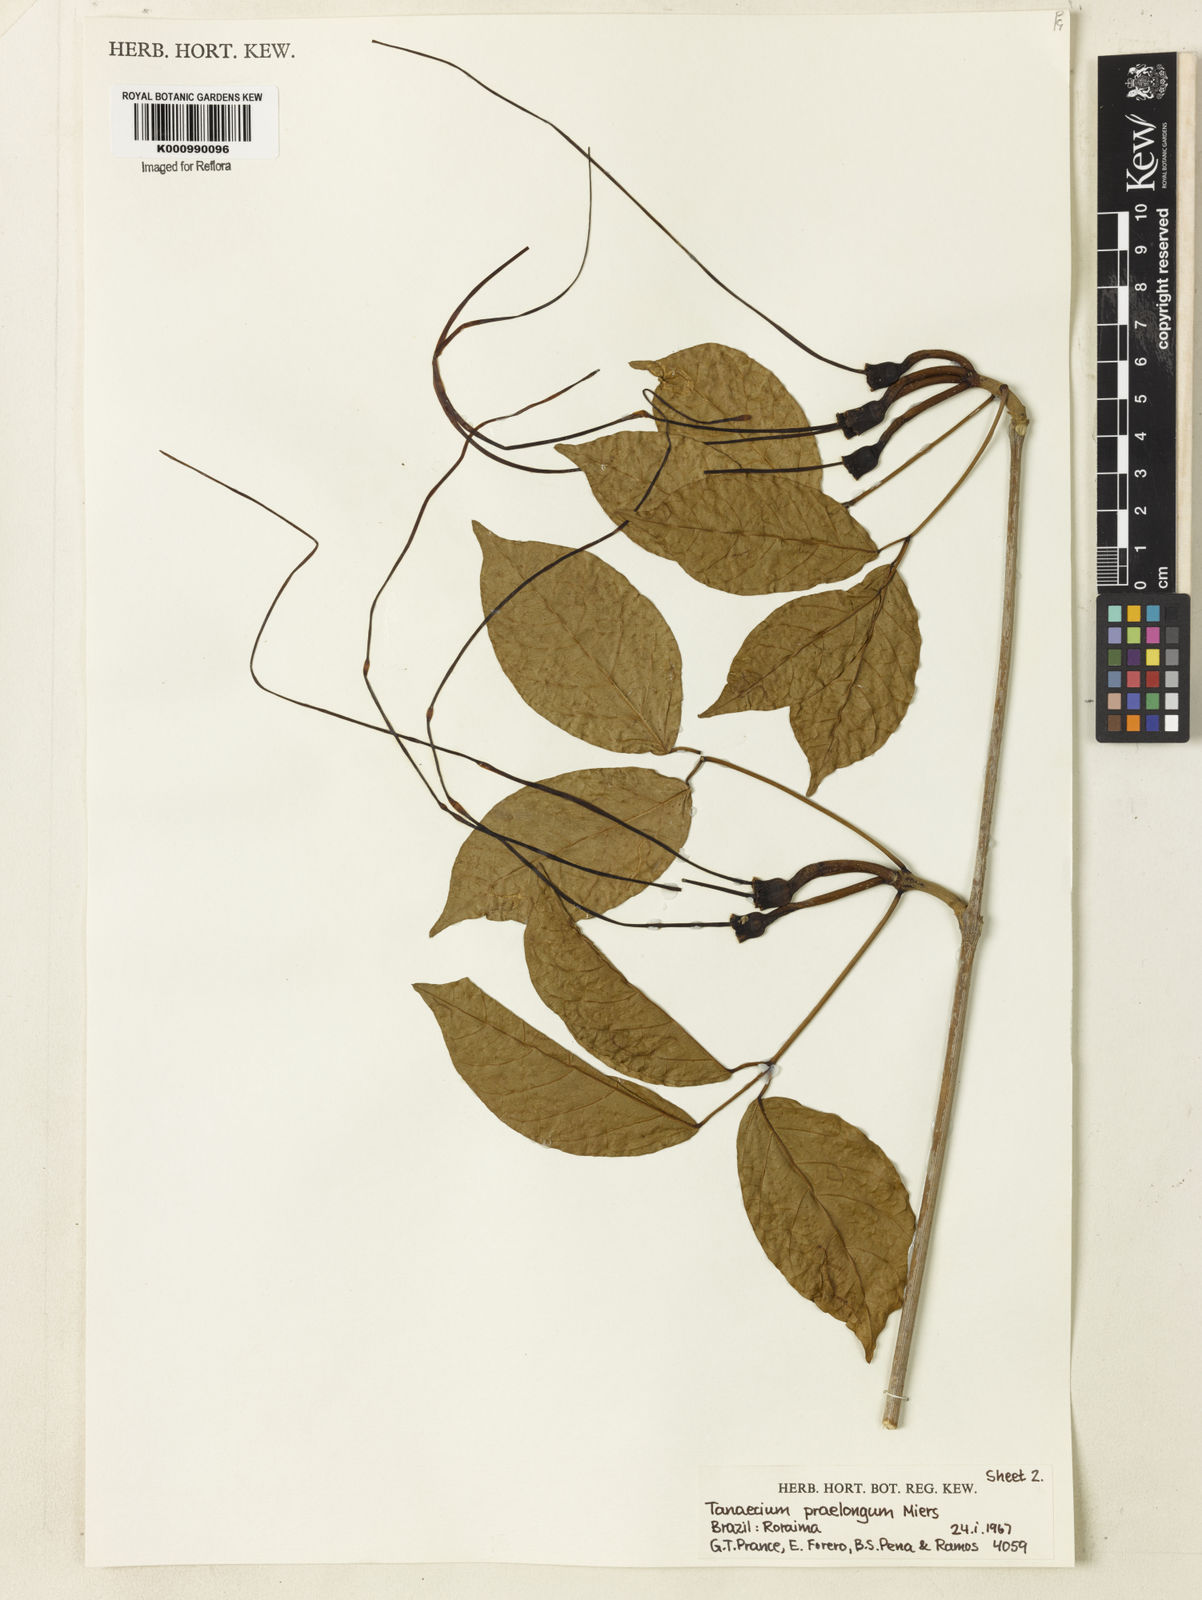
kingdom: Plantae
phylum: Tracheophyta
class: Magnoliopsida
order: Lamiales
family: Bignoniaceae
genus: Tanaecium
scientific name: Tanaecium jaroba
